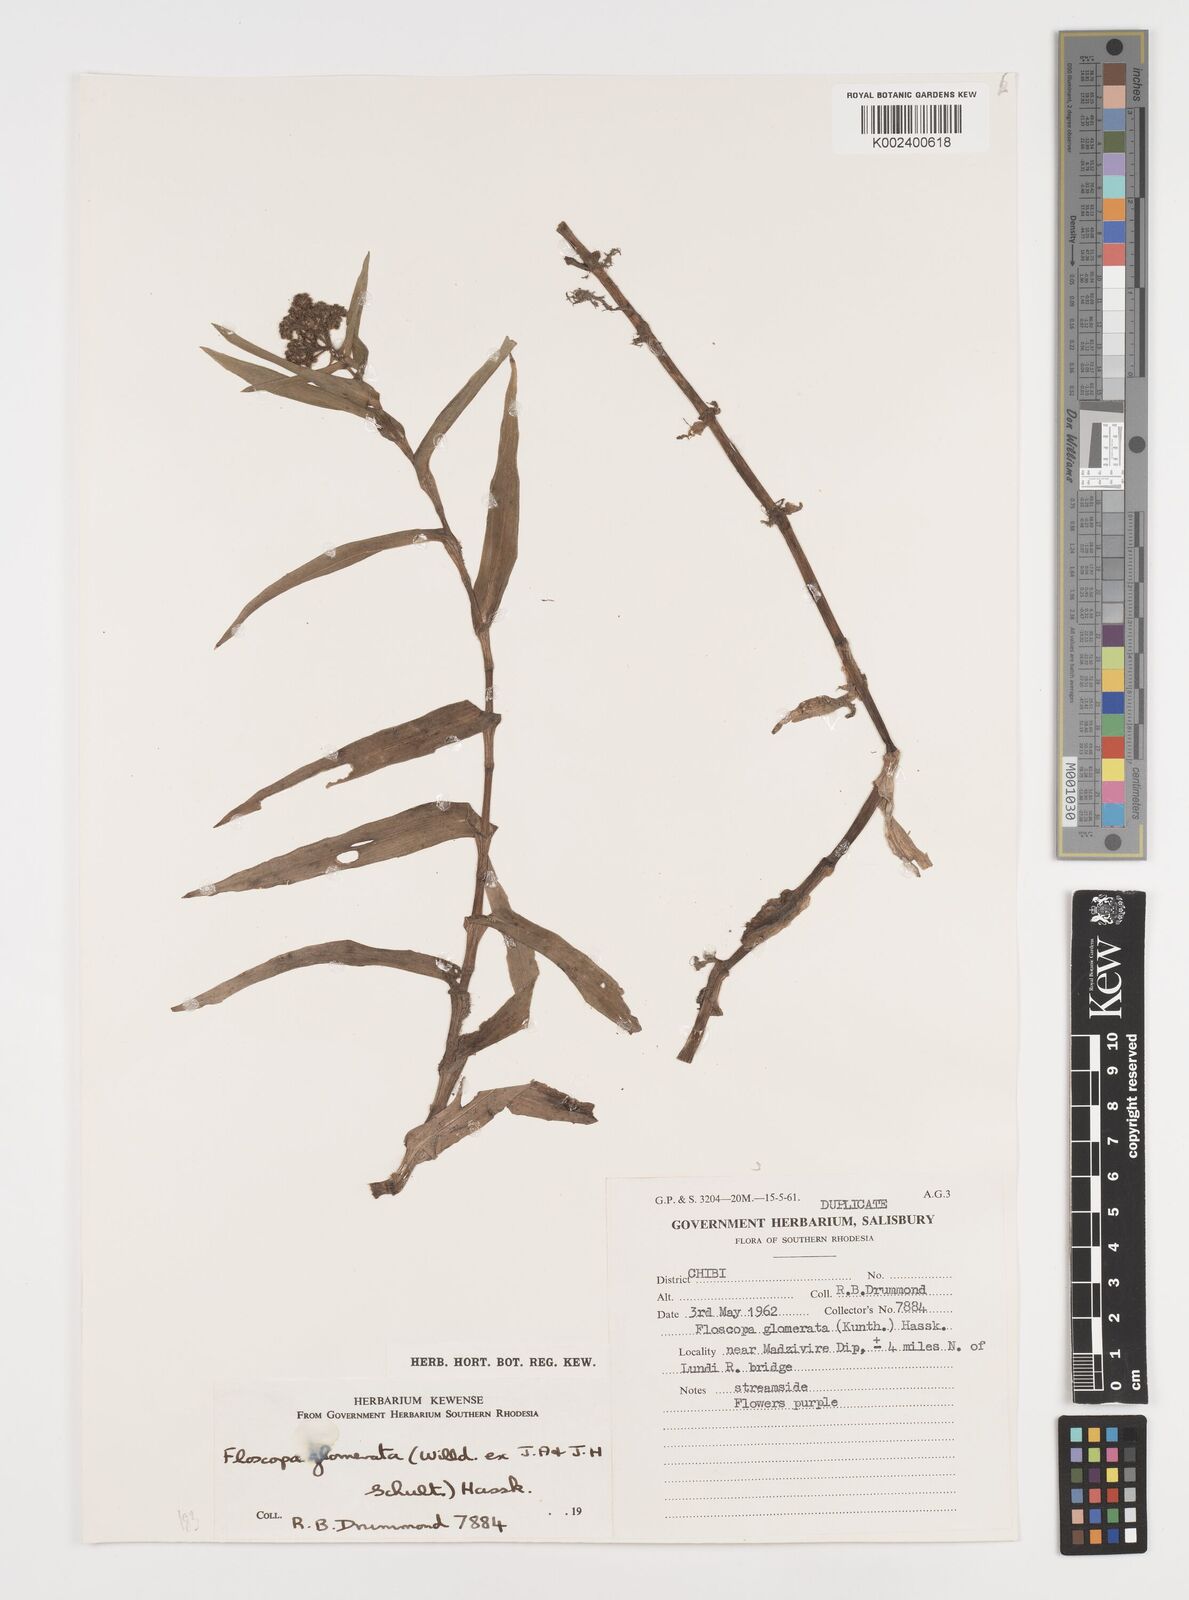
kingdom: Plantae
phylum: Tracheophyta
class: Liliopsida
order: Commelinales
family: Commelinaceae
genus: Floscopa
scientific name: Floscopa glomerata
